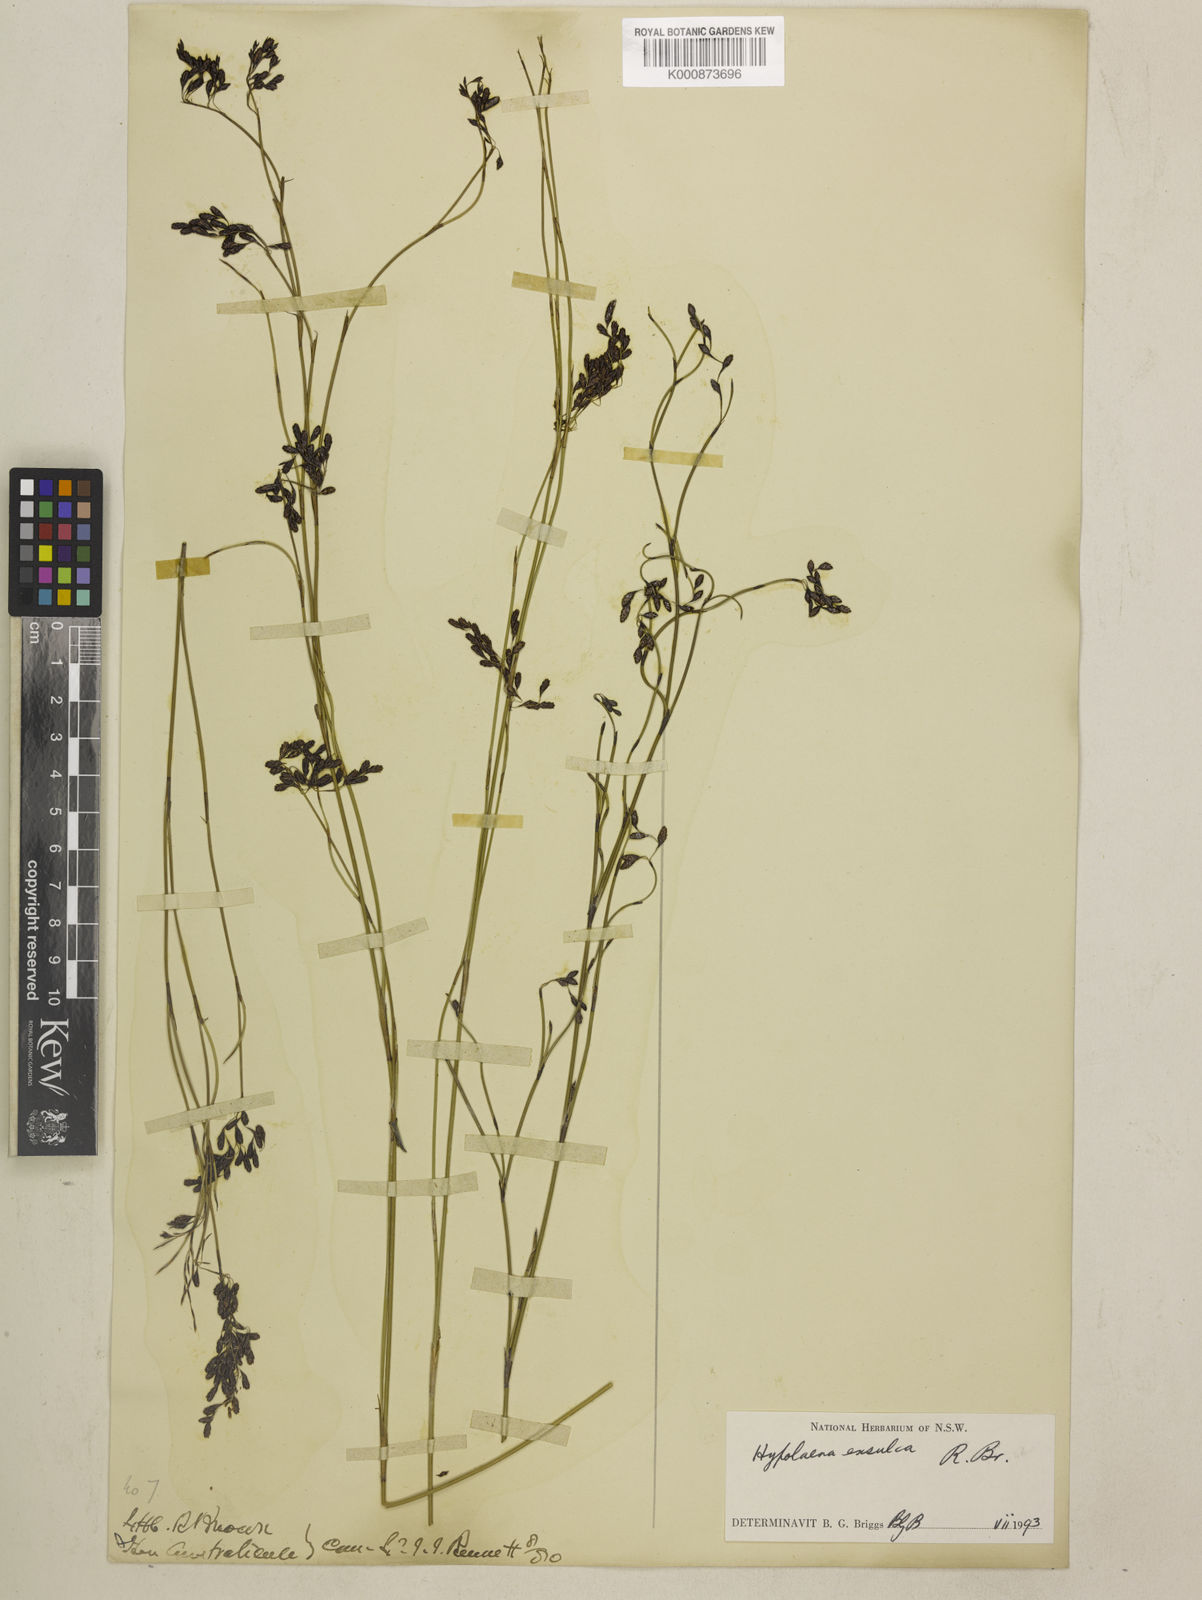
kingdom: Plantae
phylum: Tracheophyta
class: Liliopsida
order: Poales
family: Restionaceae
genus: Leptocarpus
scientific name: Leptocarpus laxus
